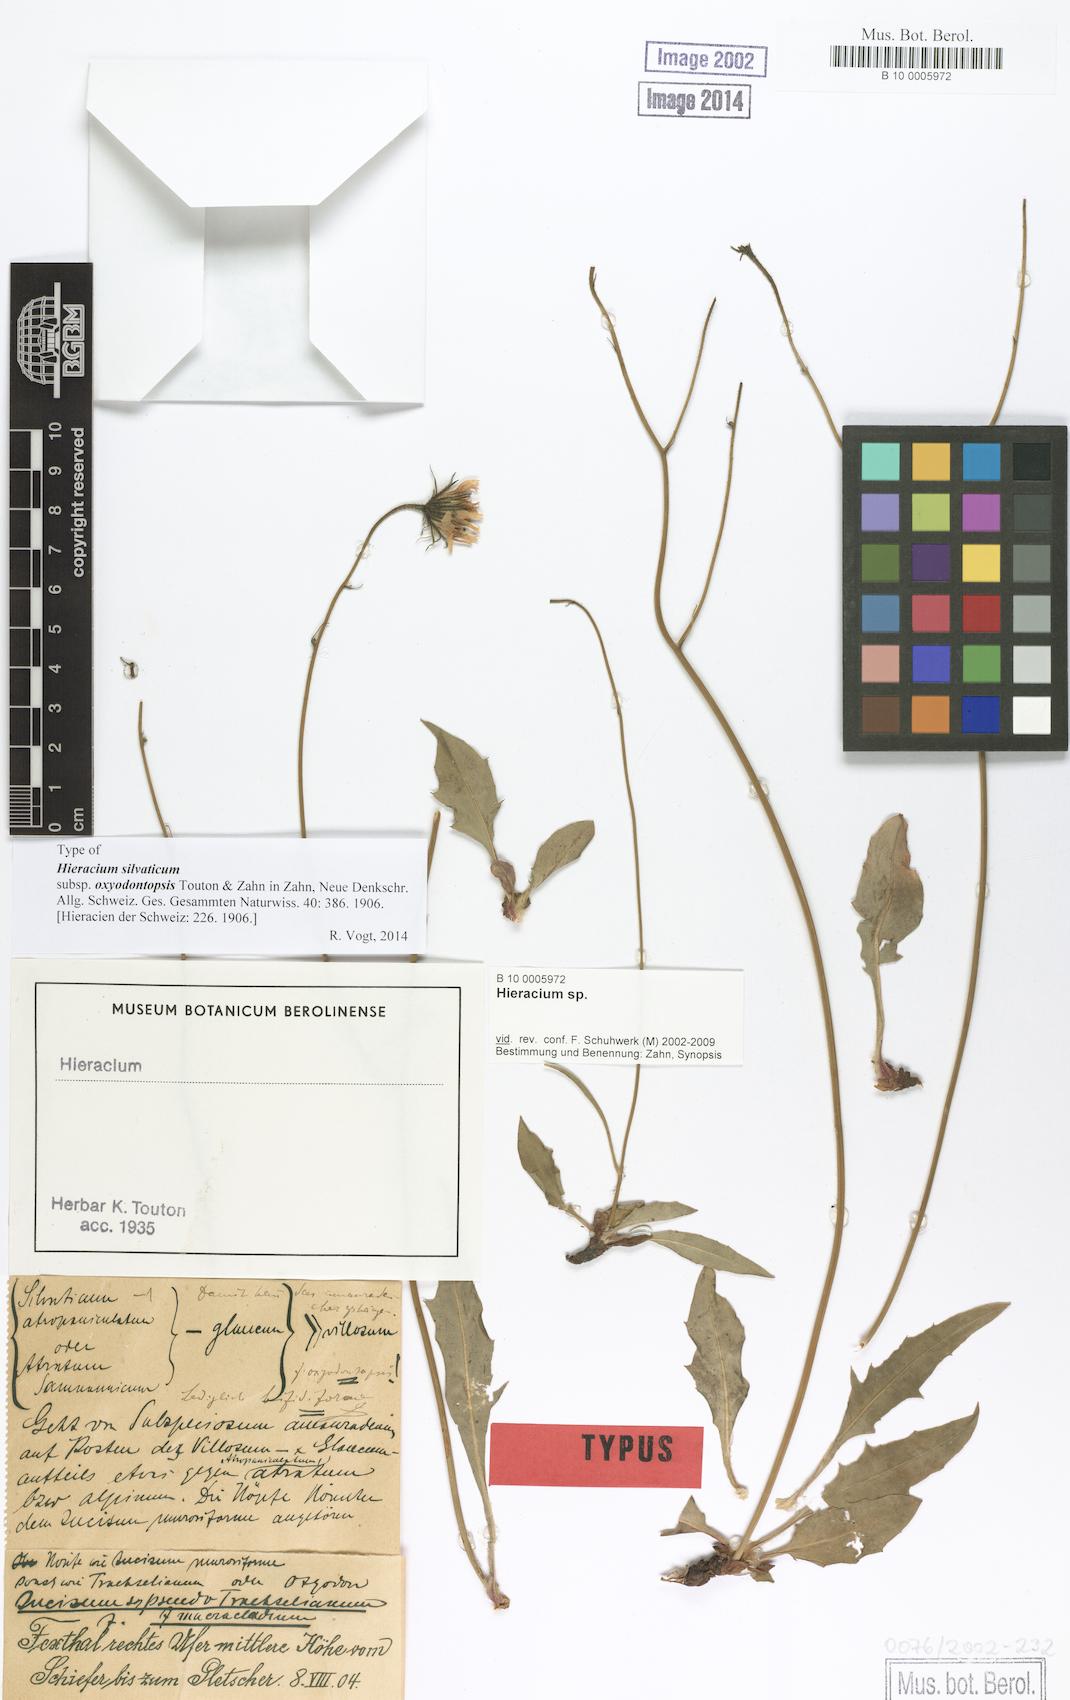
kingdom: Plantae
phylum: Tracheophyta
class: Magnoliopsida
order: Asterales
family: Asteraceae
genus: Hieracium
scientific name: Hieracium murorum
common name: Wall hawkweed
